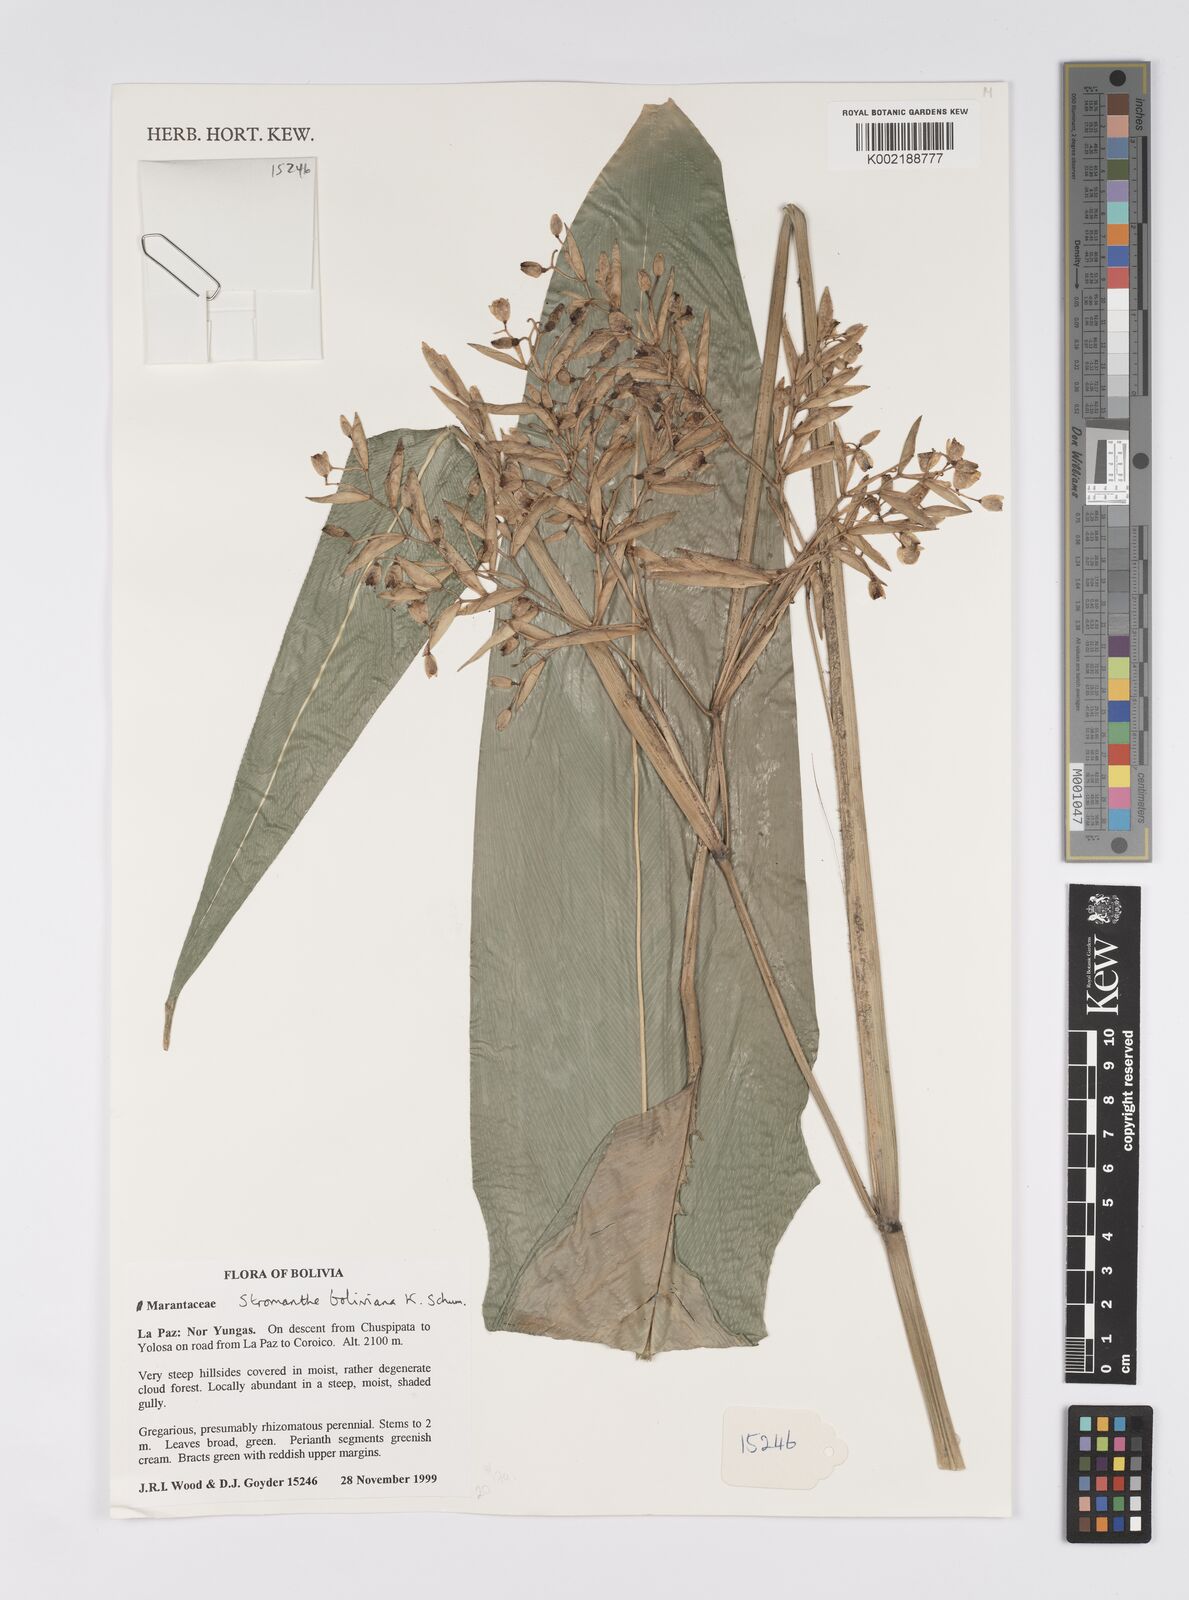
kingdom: Plantae
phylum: Tracheophyta
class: Liliopsida
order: Zingiberales
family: Marantaceae
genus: Stromanthe
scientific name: Stromanthe boliviana
